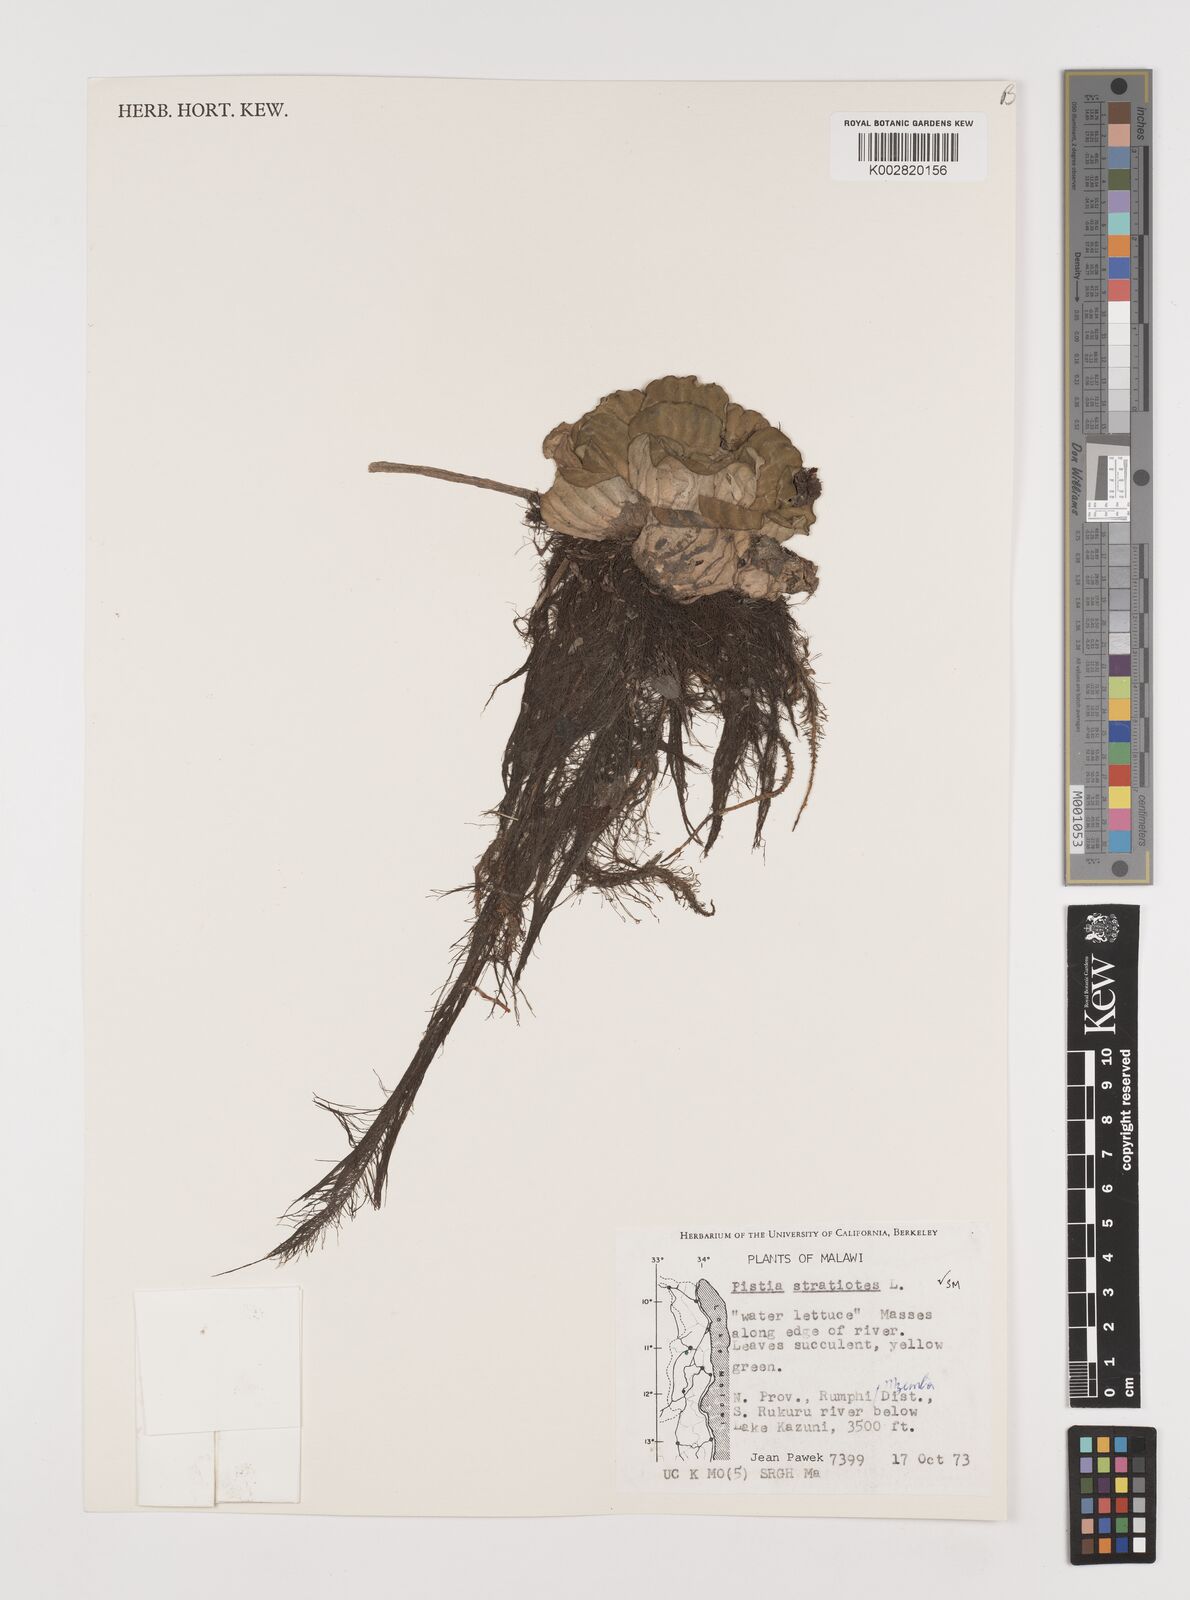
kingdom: Plantae
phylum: Tracheophyta
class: Liliopsida
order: Alismatales
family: Araceae
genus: Pistia
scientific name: Pistia stratiotes
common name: Water lettuce
